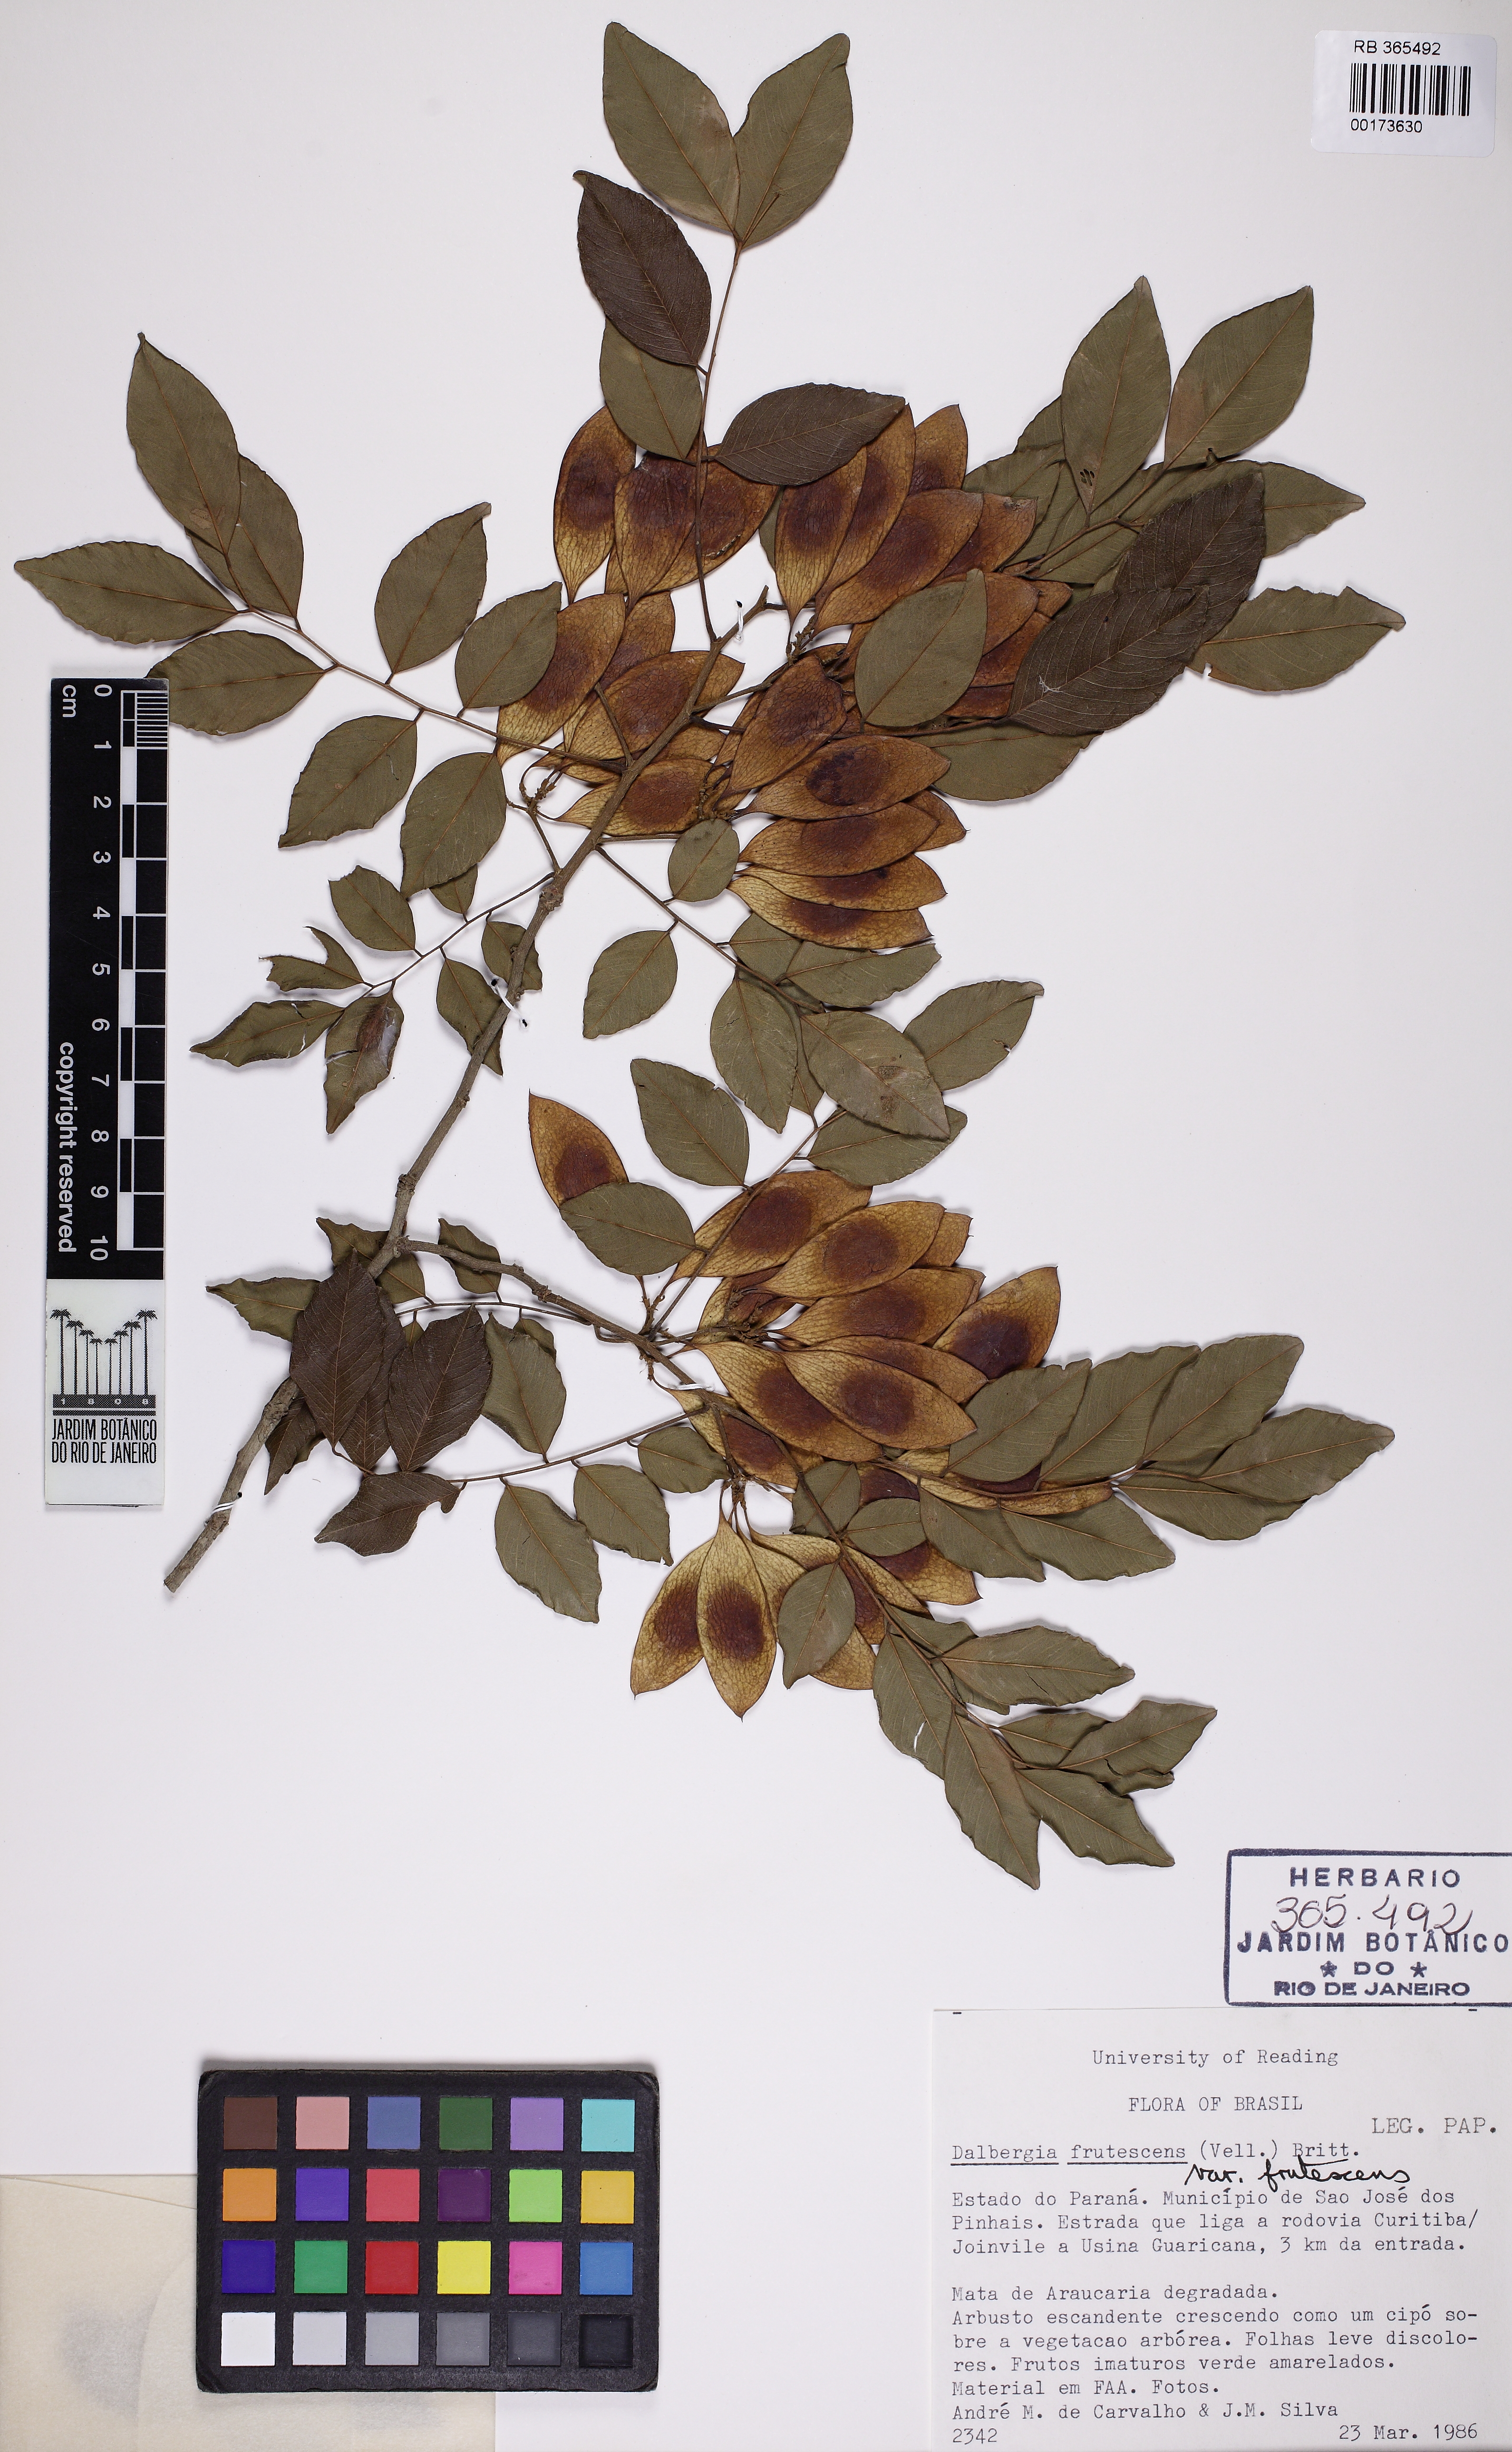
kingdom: Plantae
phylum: Tracheophyta
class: Magnoliopsida
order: Fabales
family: Fabaceae
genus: Dalbergia
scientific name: Dalbergia frutescens
